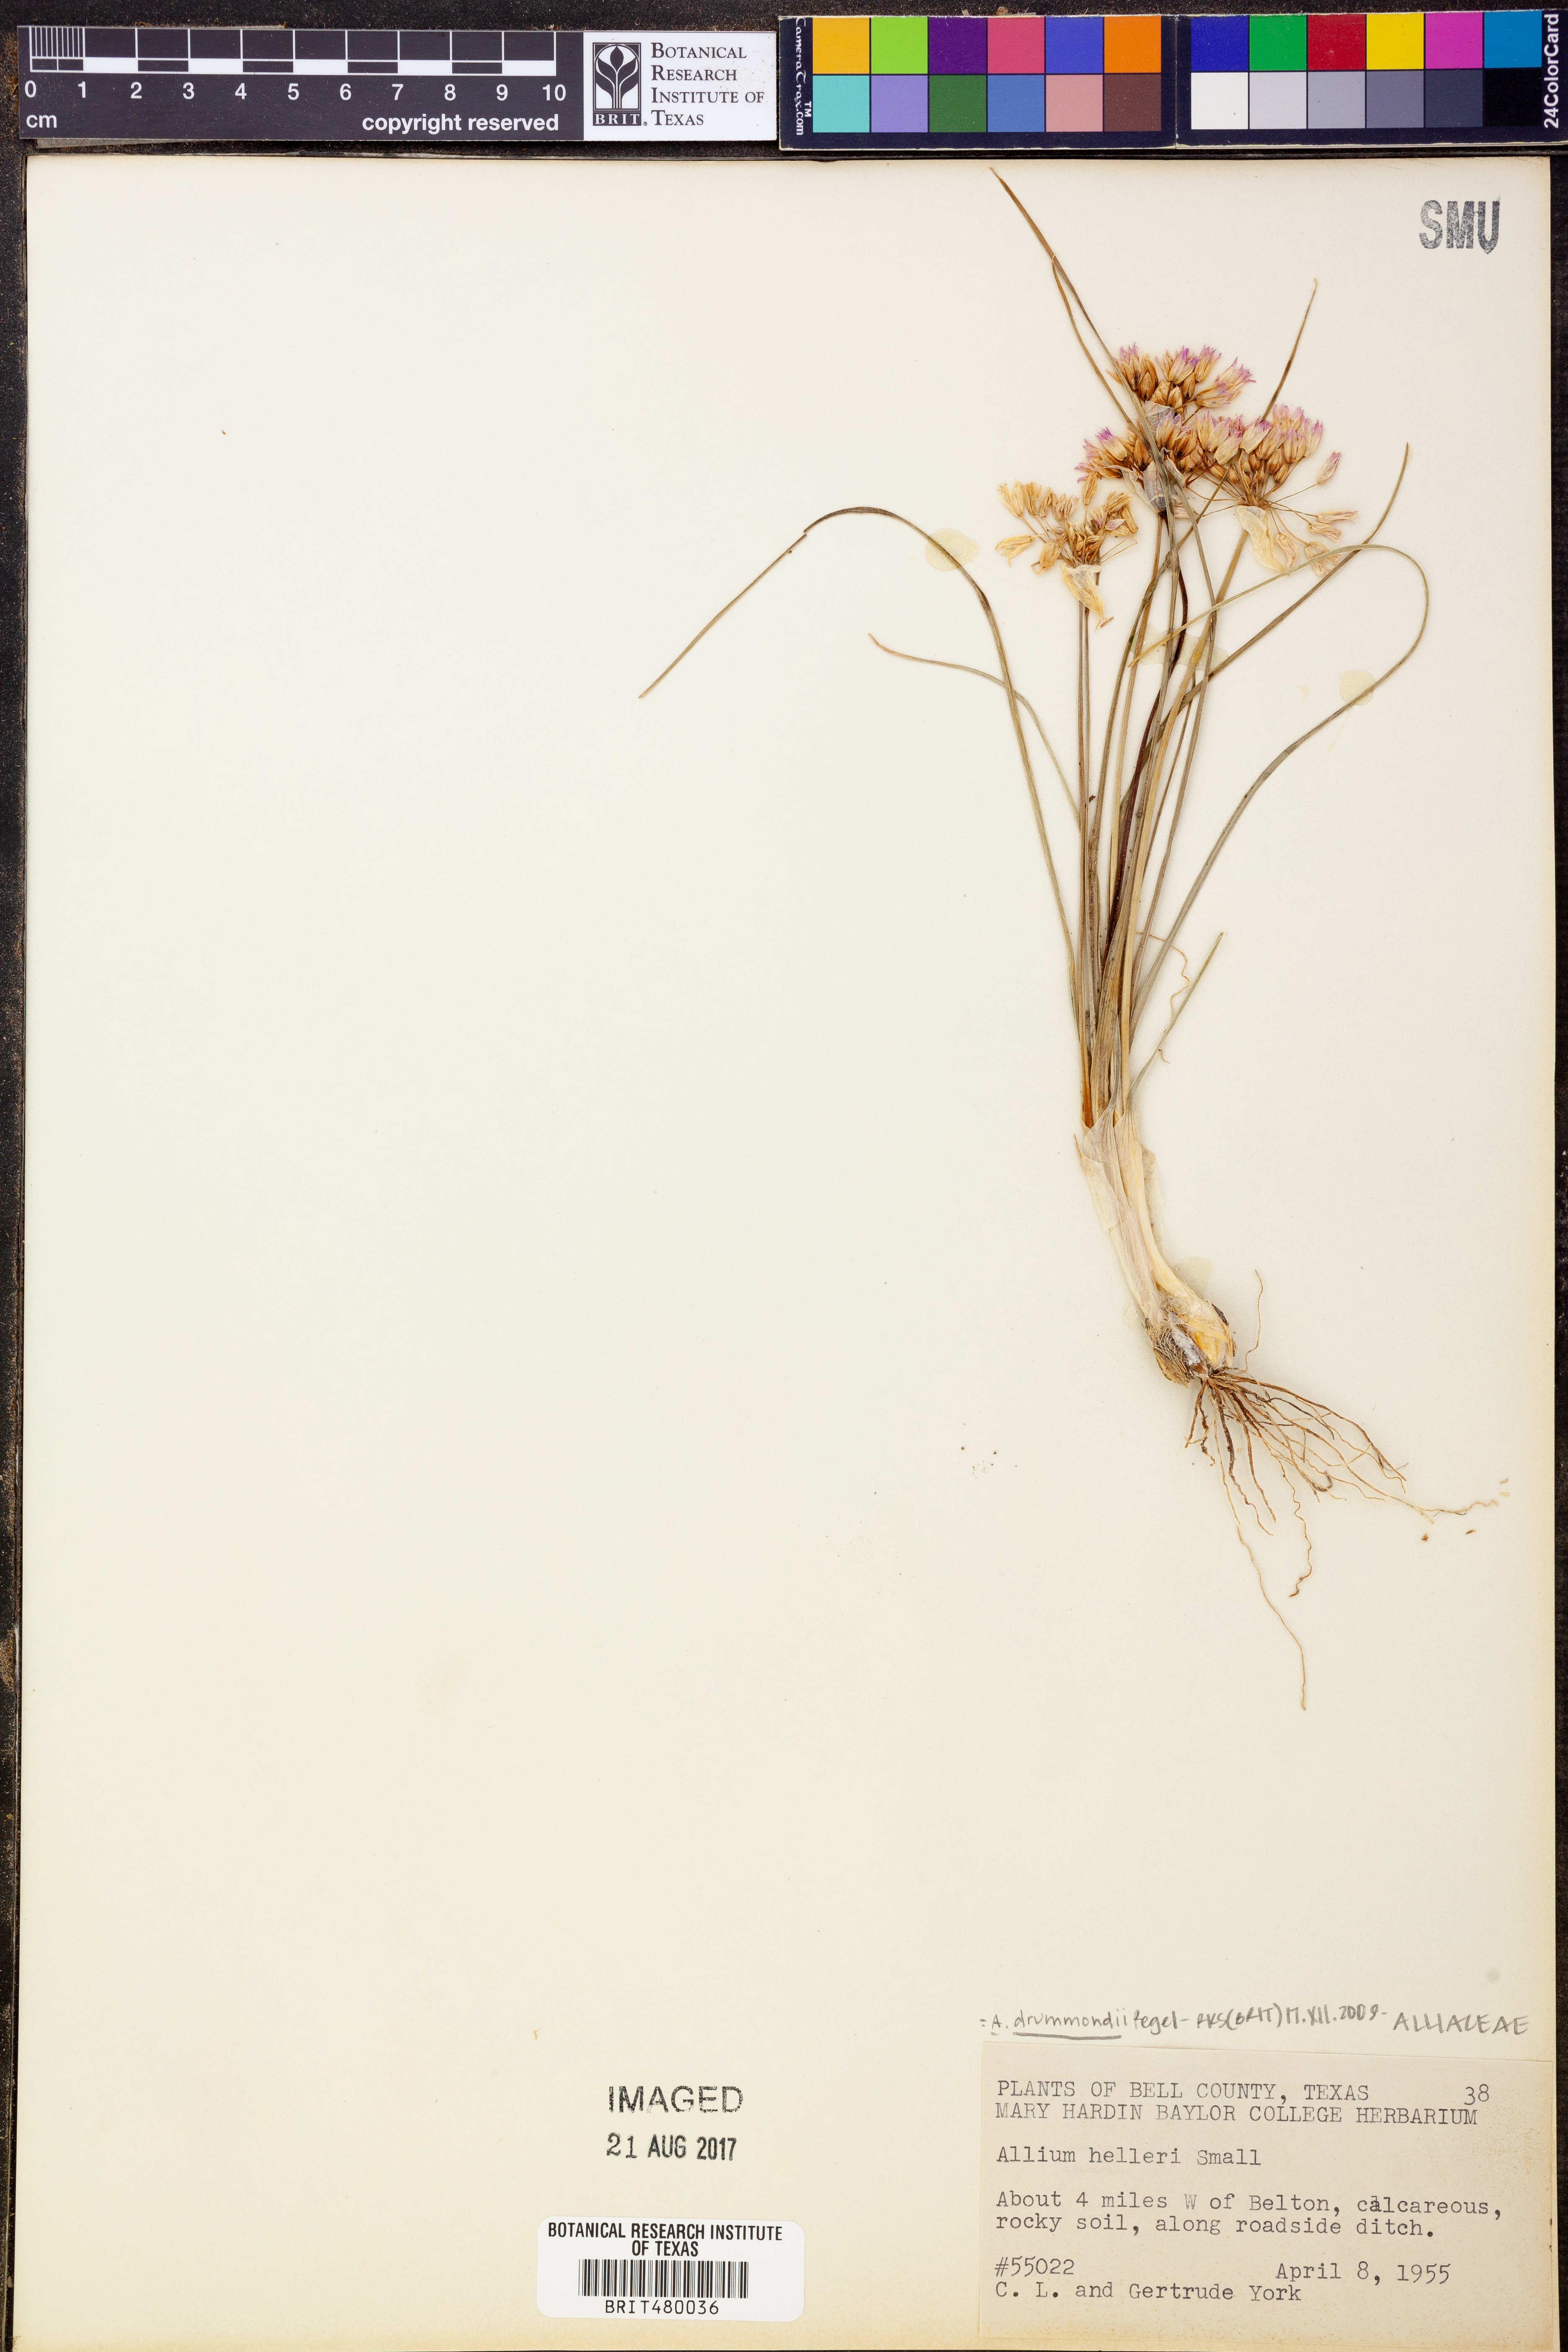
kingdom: Plantae
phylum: Tracheophyta
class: Liliopsida
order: Asparagales
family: Amaryllidaceae
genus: Allium
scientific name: Allium drummondii
